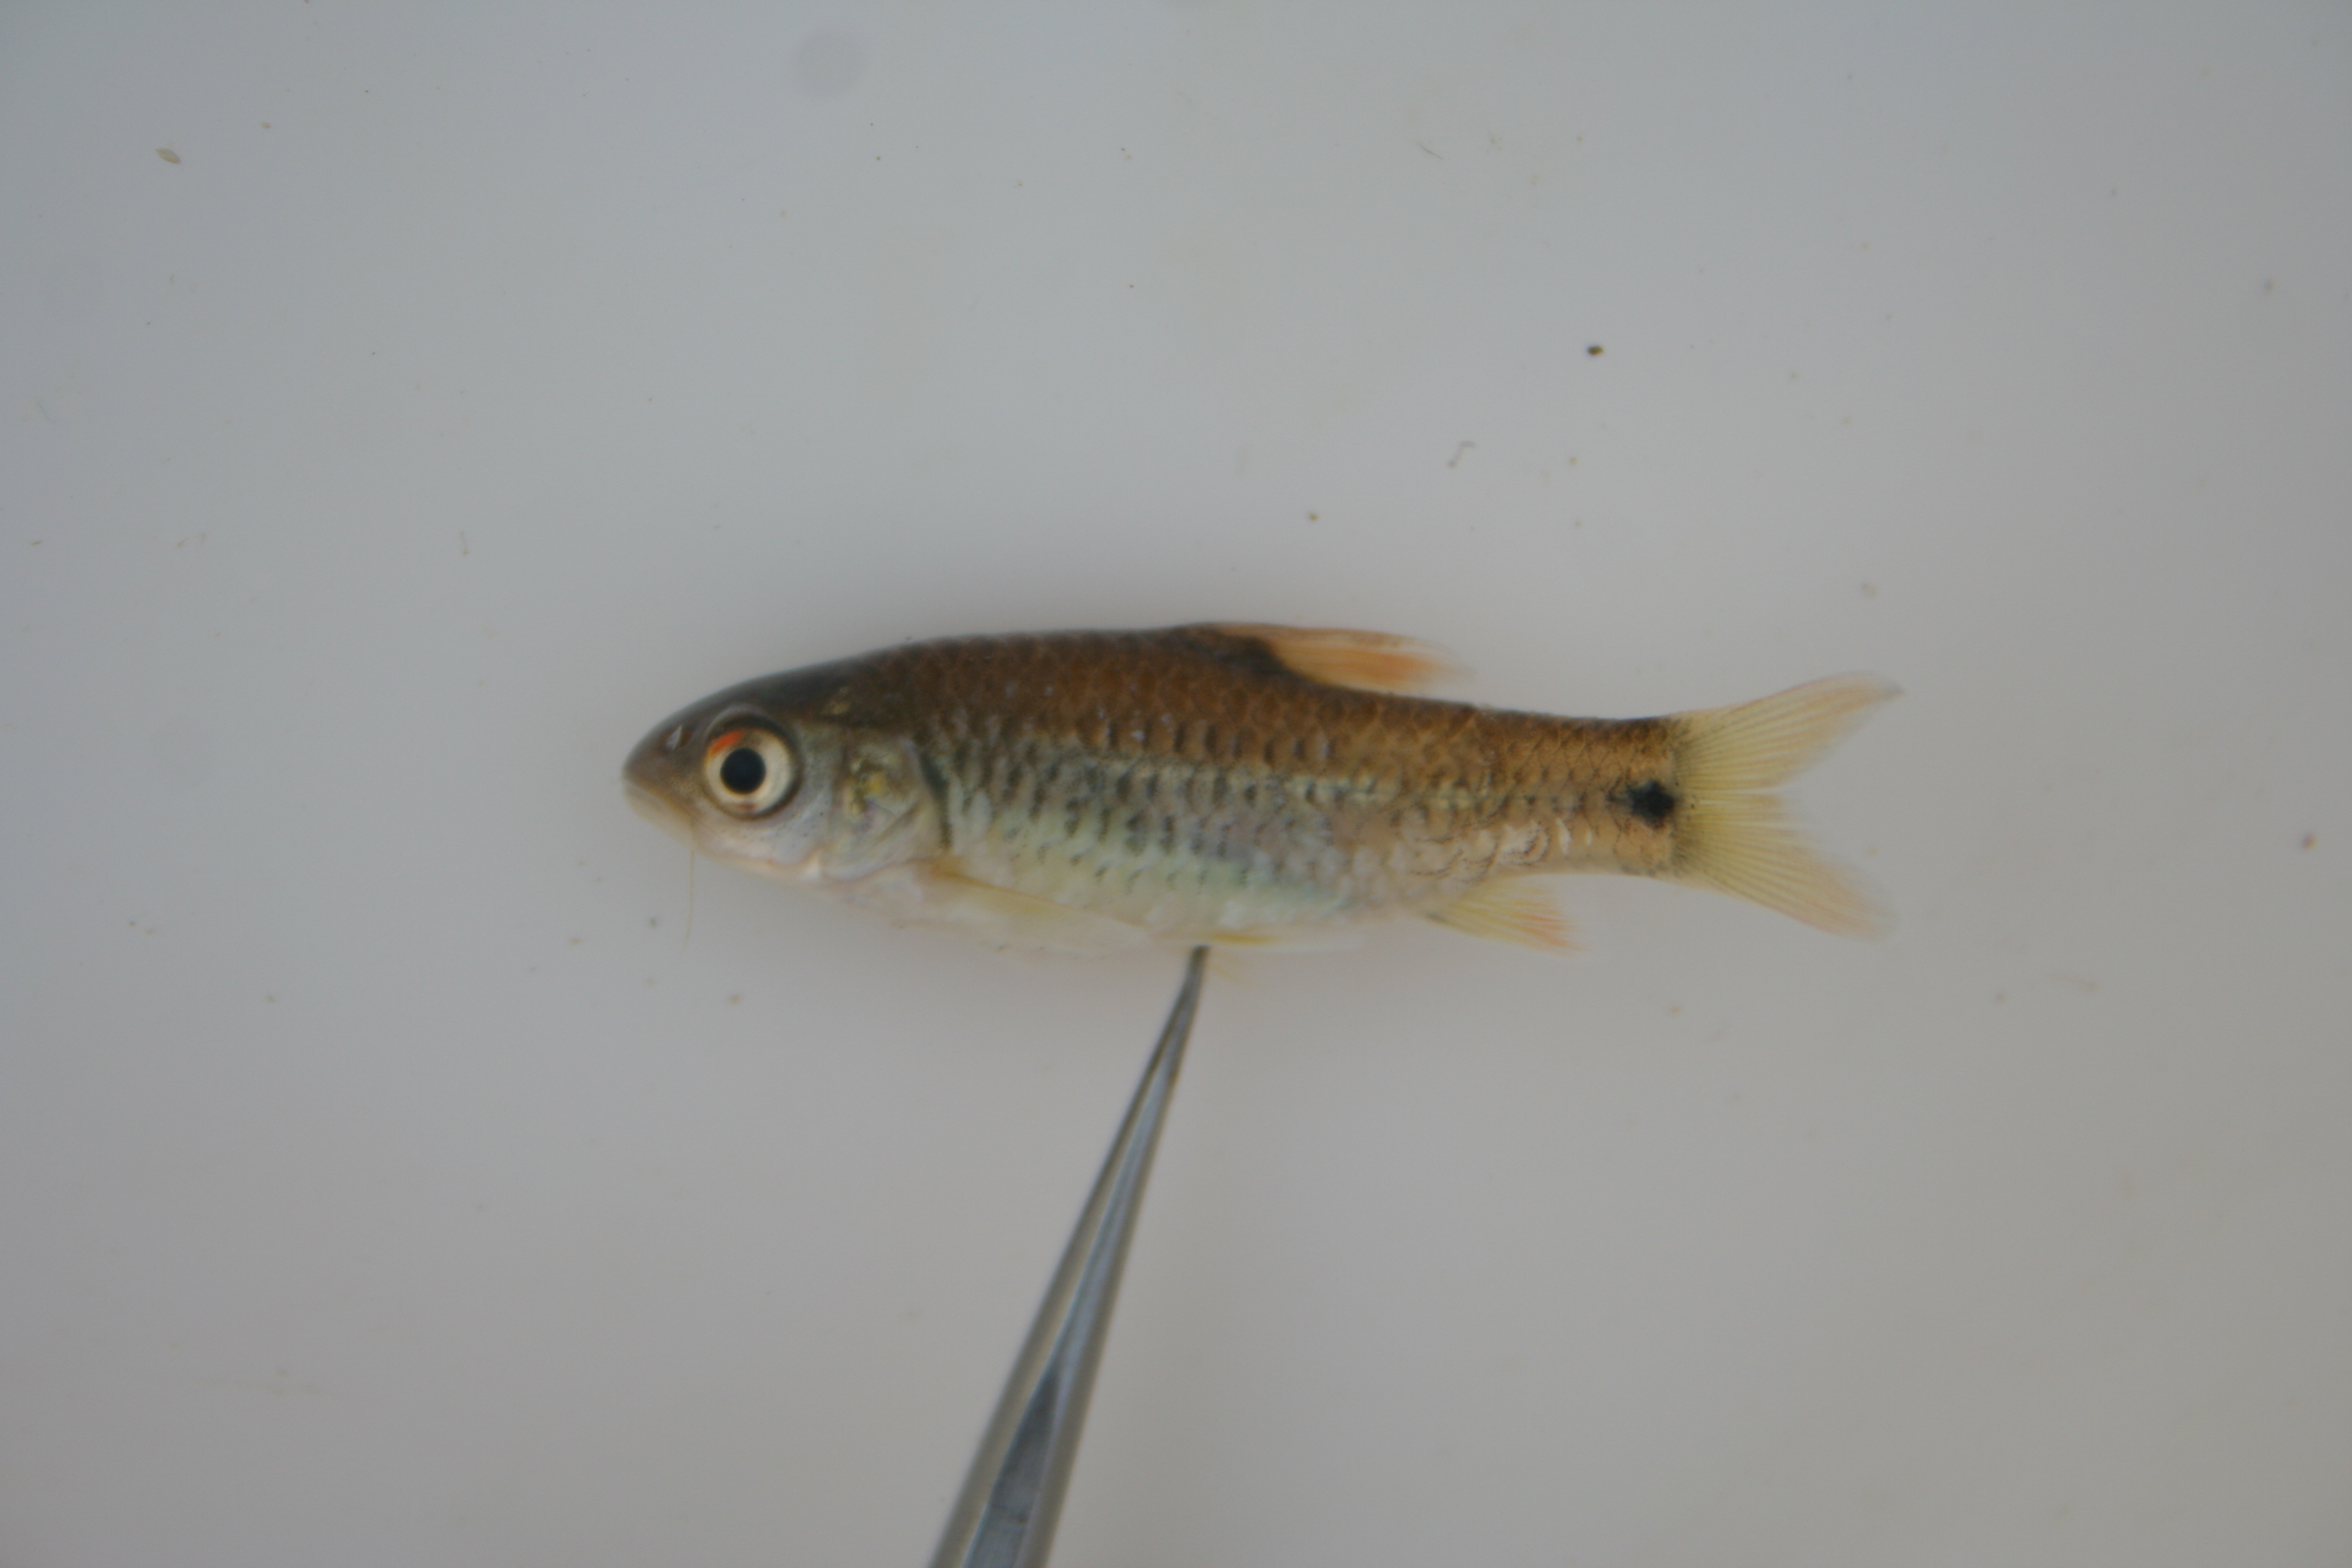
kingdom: Animalia
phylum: Chordata
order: Cypriniformes
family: Cyprinidae
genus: Barbus
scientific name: Barbus
